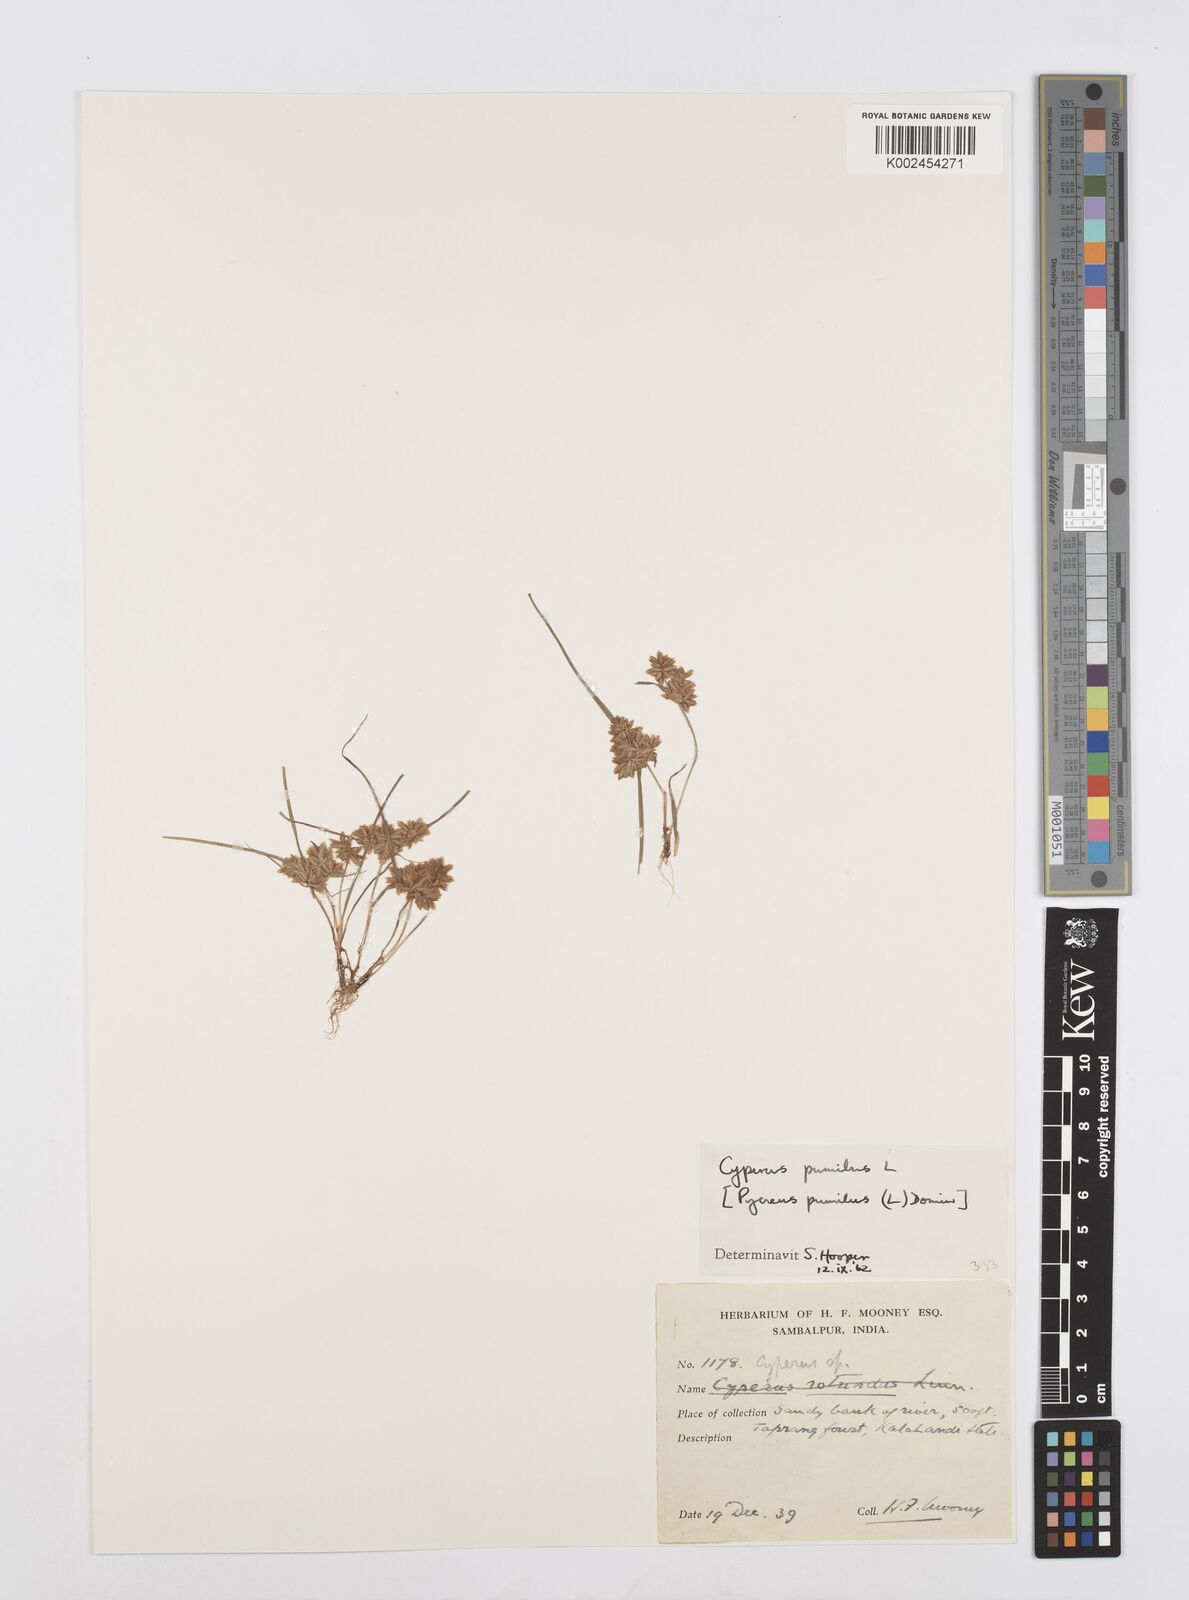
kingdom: Plantae
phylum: Tracheophyta
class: Liliopsida
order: Poales
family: Cyperaceae
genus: Cyperus
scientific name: Cyperus pumilus
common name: Low flatsedge
